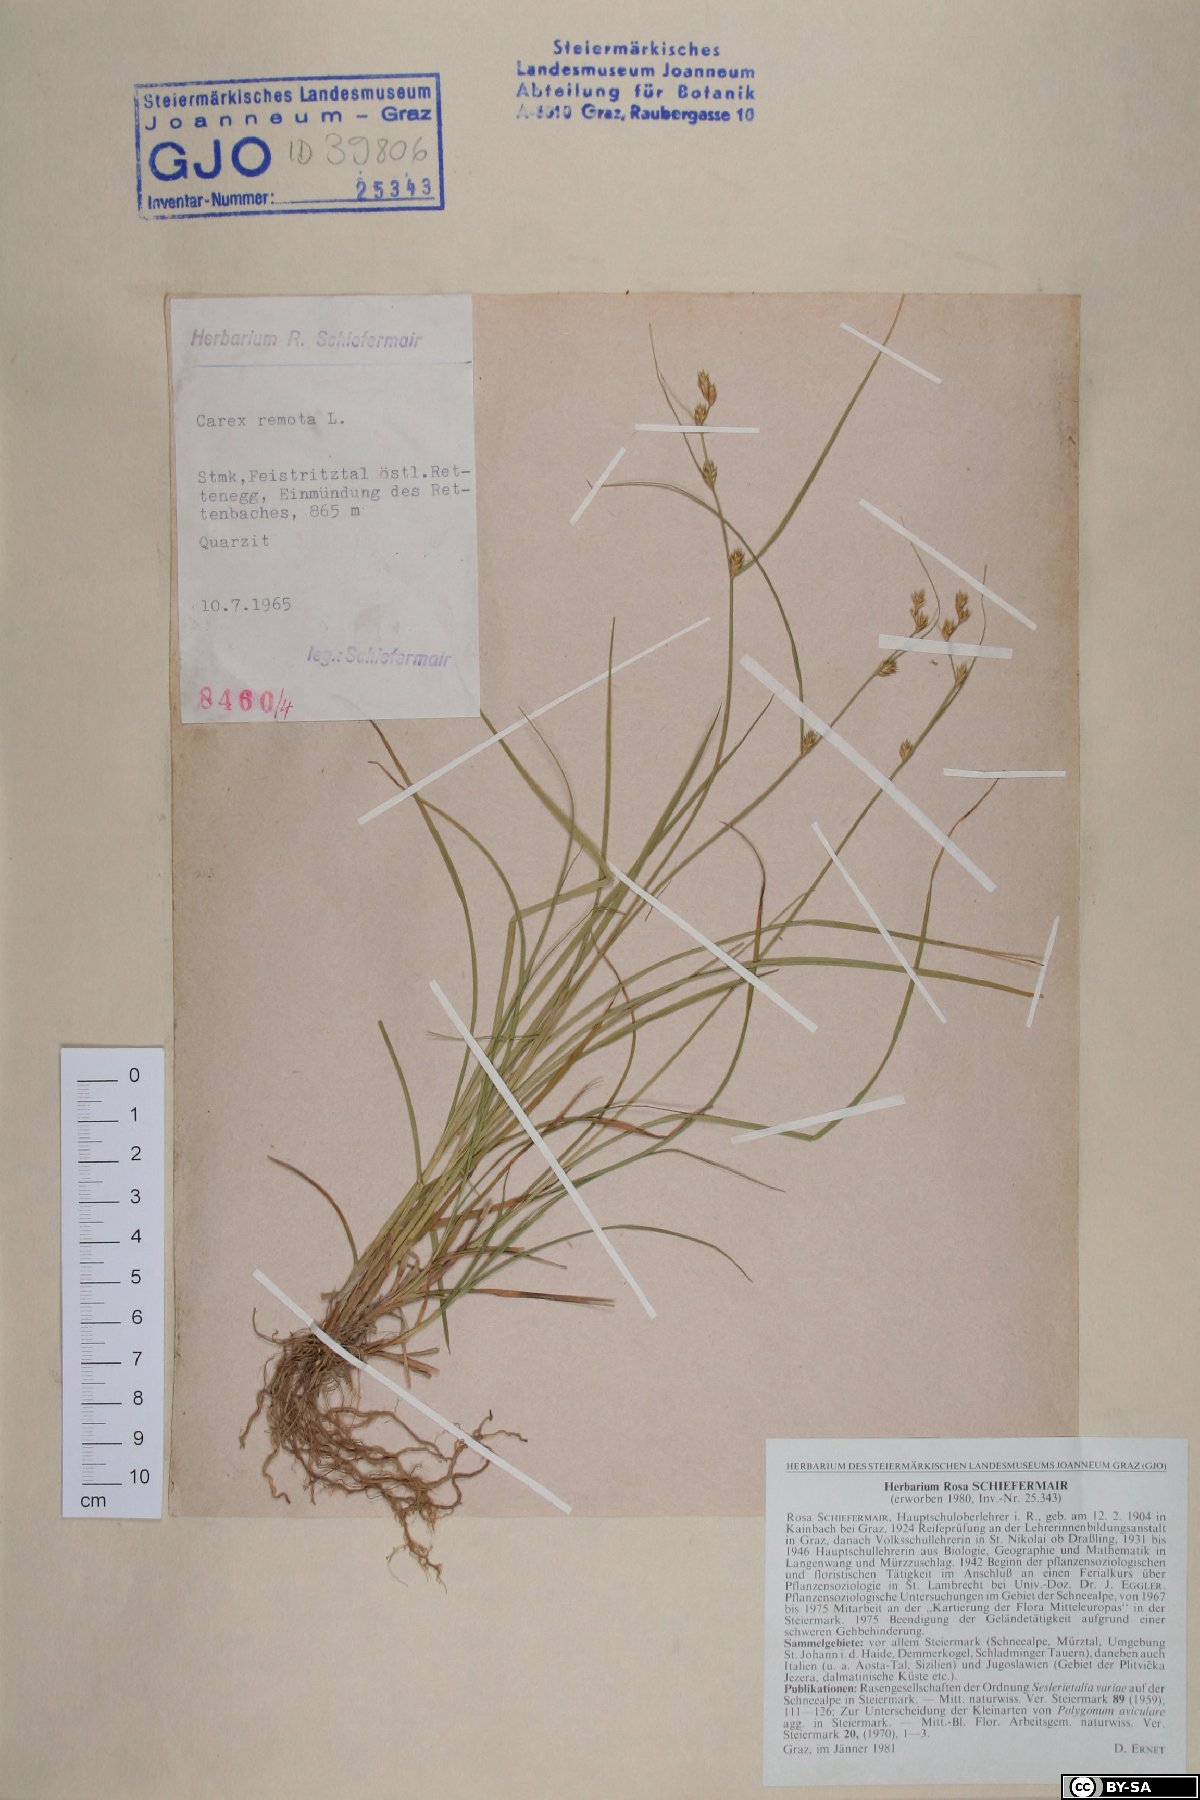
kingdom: Plantae
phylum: Tracheophyta
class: Liliopsida
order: Poales
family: Cyperaceae
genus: Carex
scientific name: Carex remota
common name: Remote sedge
